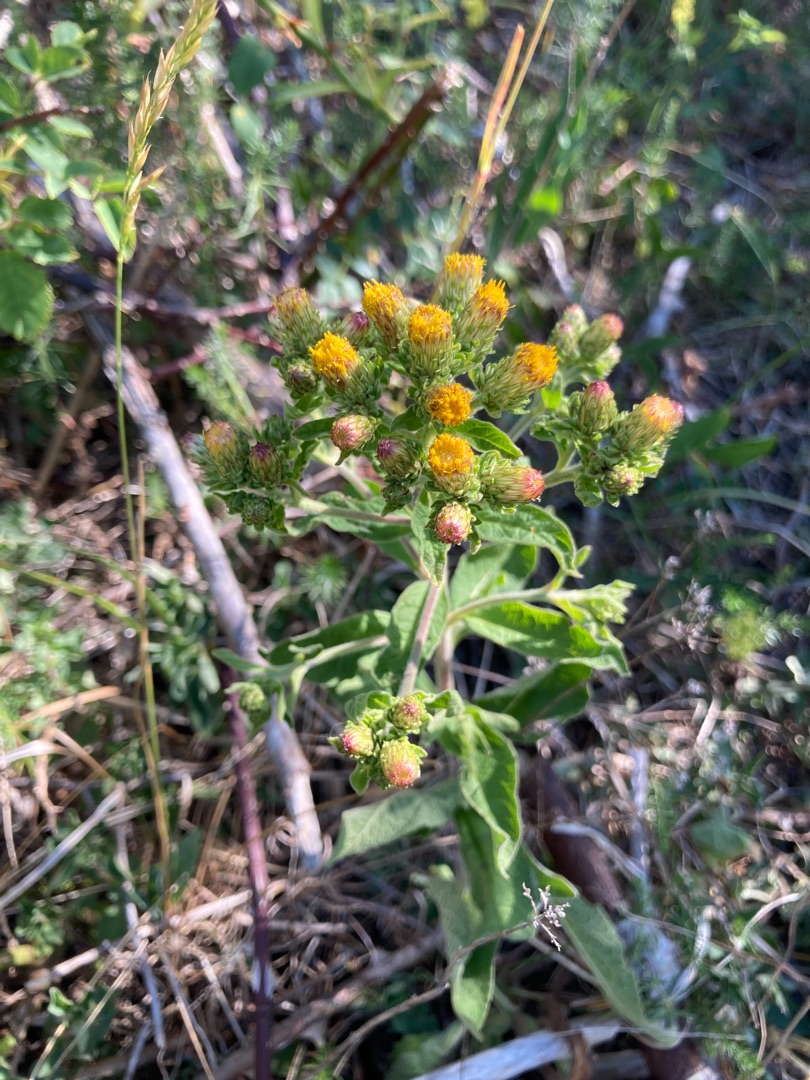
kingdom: Plantae
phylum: Tracheophyta
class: Magnoliopsida
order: Asterales
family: Asteraceae
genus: Pentanema
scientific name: Pentanema squarrosum
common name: Trekløft-alant
